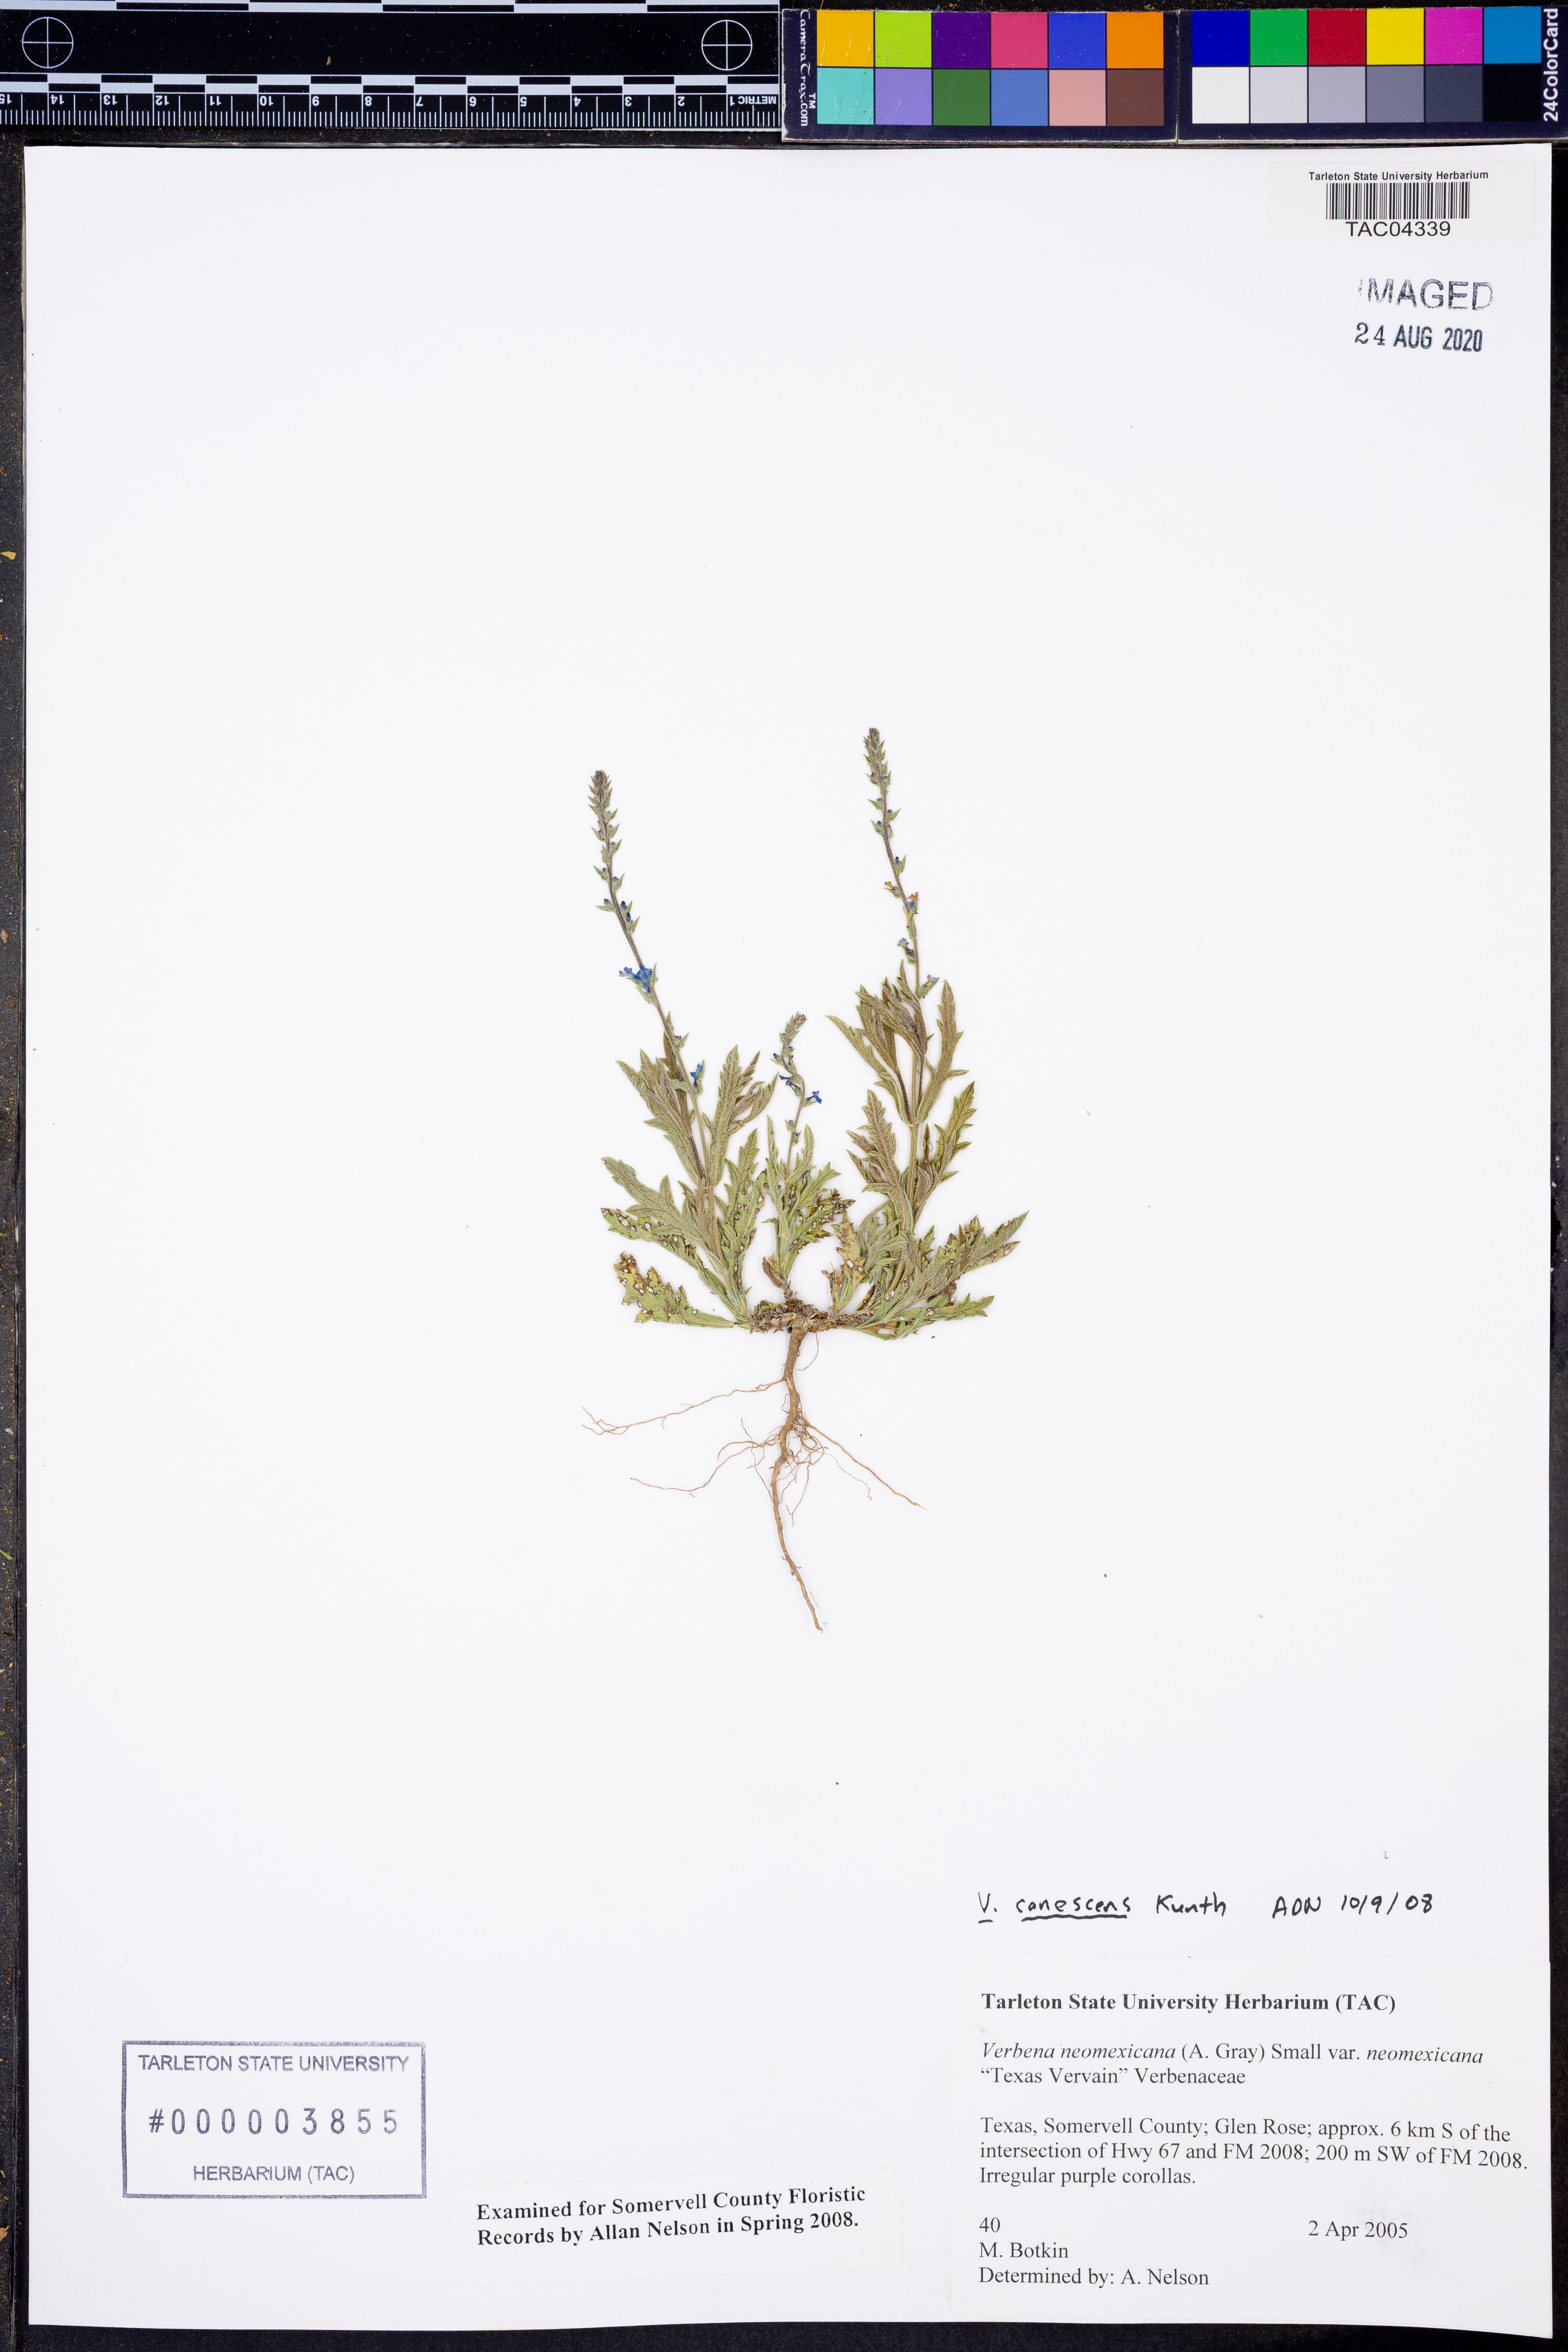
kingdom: Plantae
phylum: Tracheophyta
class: Magnoliopsida
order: Lamiales
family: Verbenaceae
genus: Verbena
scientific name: Verbena canescens
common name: Gray vervain
